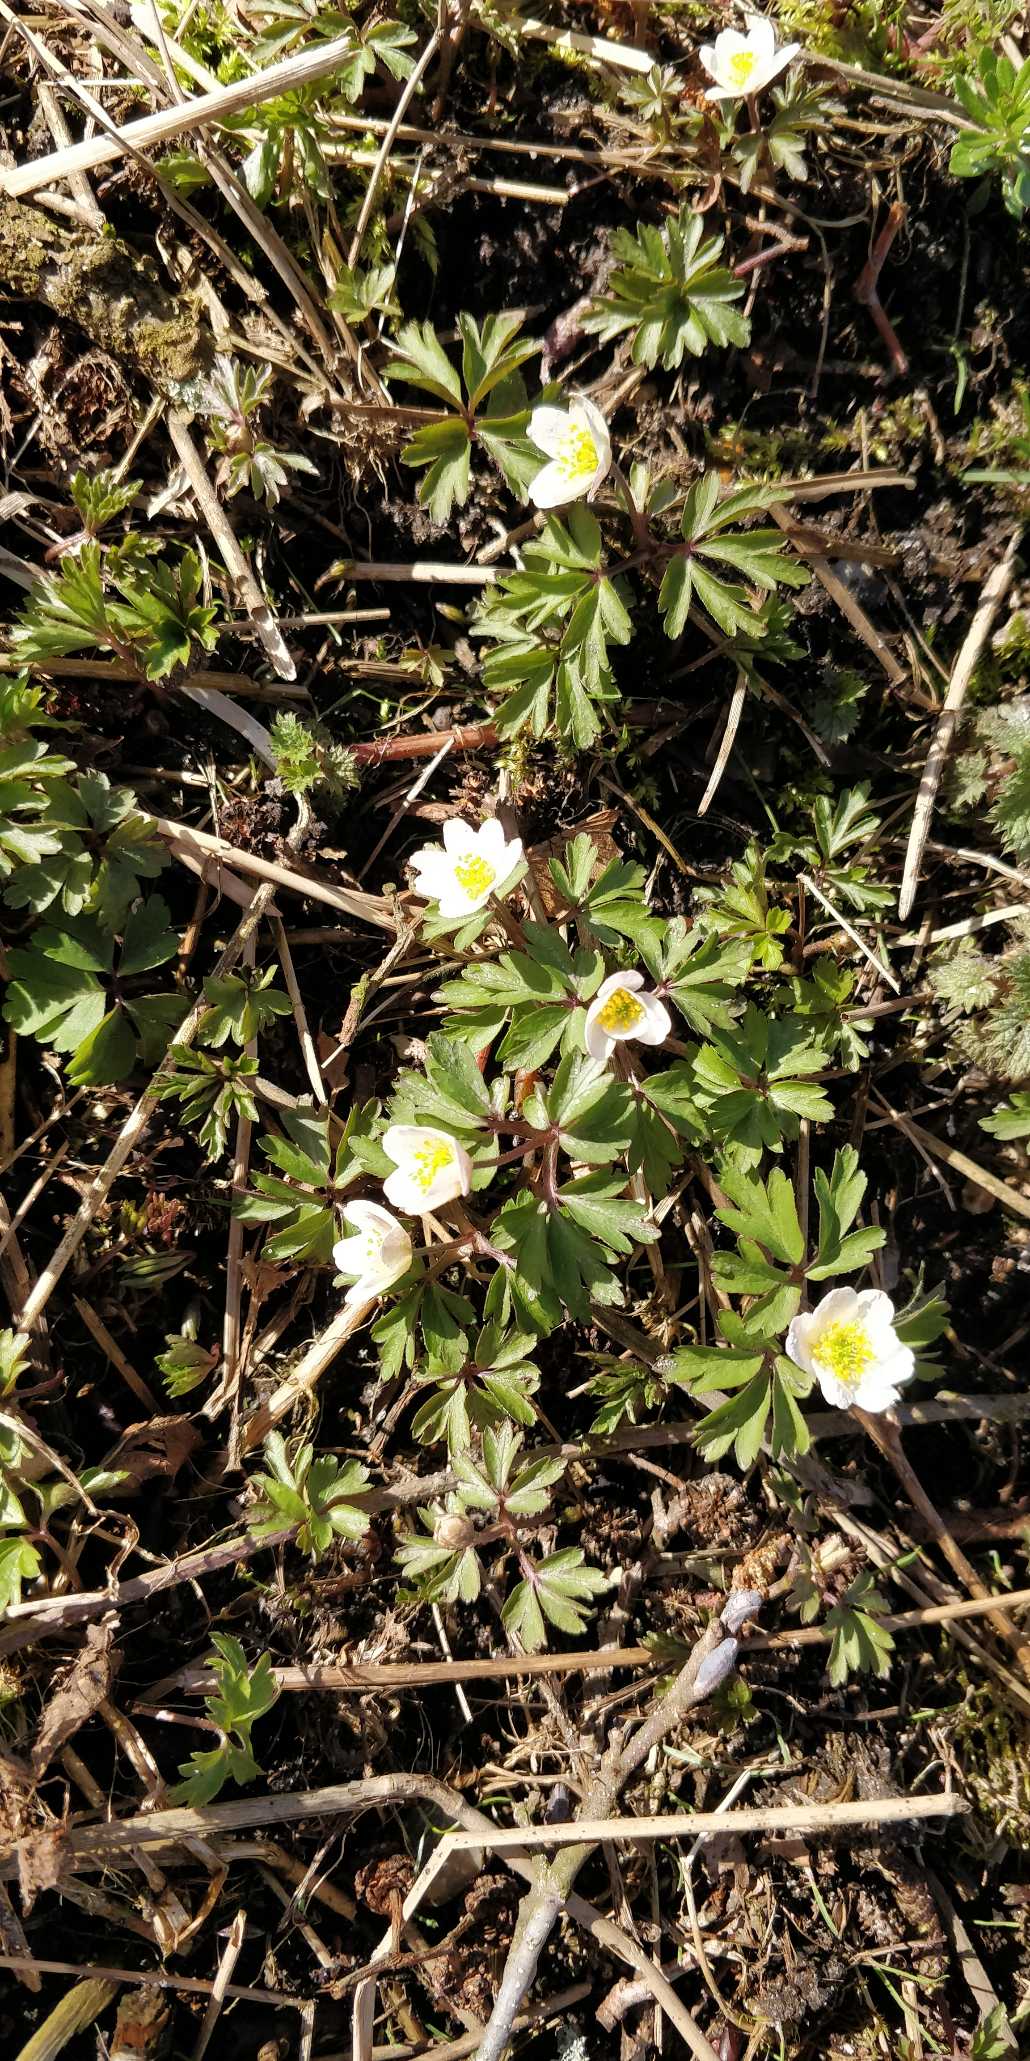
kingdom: Plantae
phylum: Tracheophyta
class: Magnoliopsida
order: Ranunculales
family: Ranunculaceae
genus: Anemone
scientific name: Anemone nemorosa
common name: Hvid anemone
